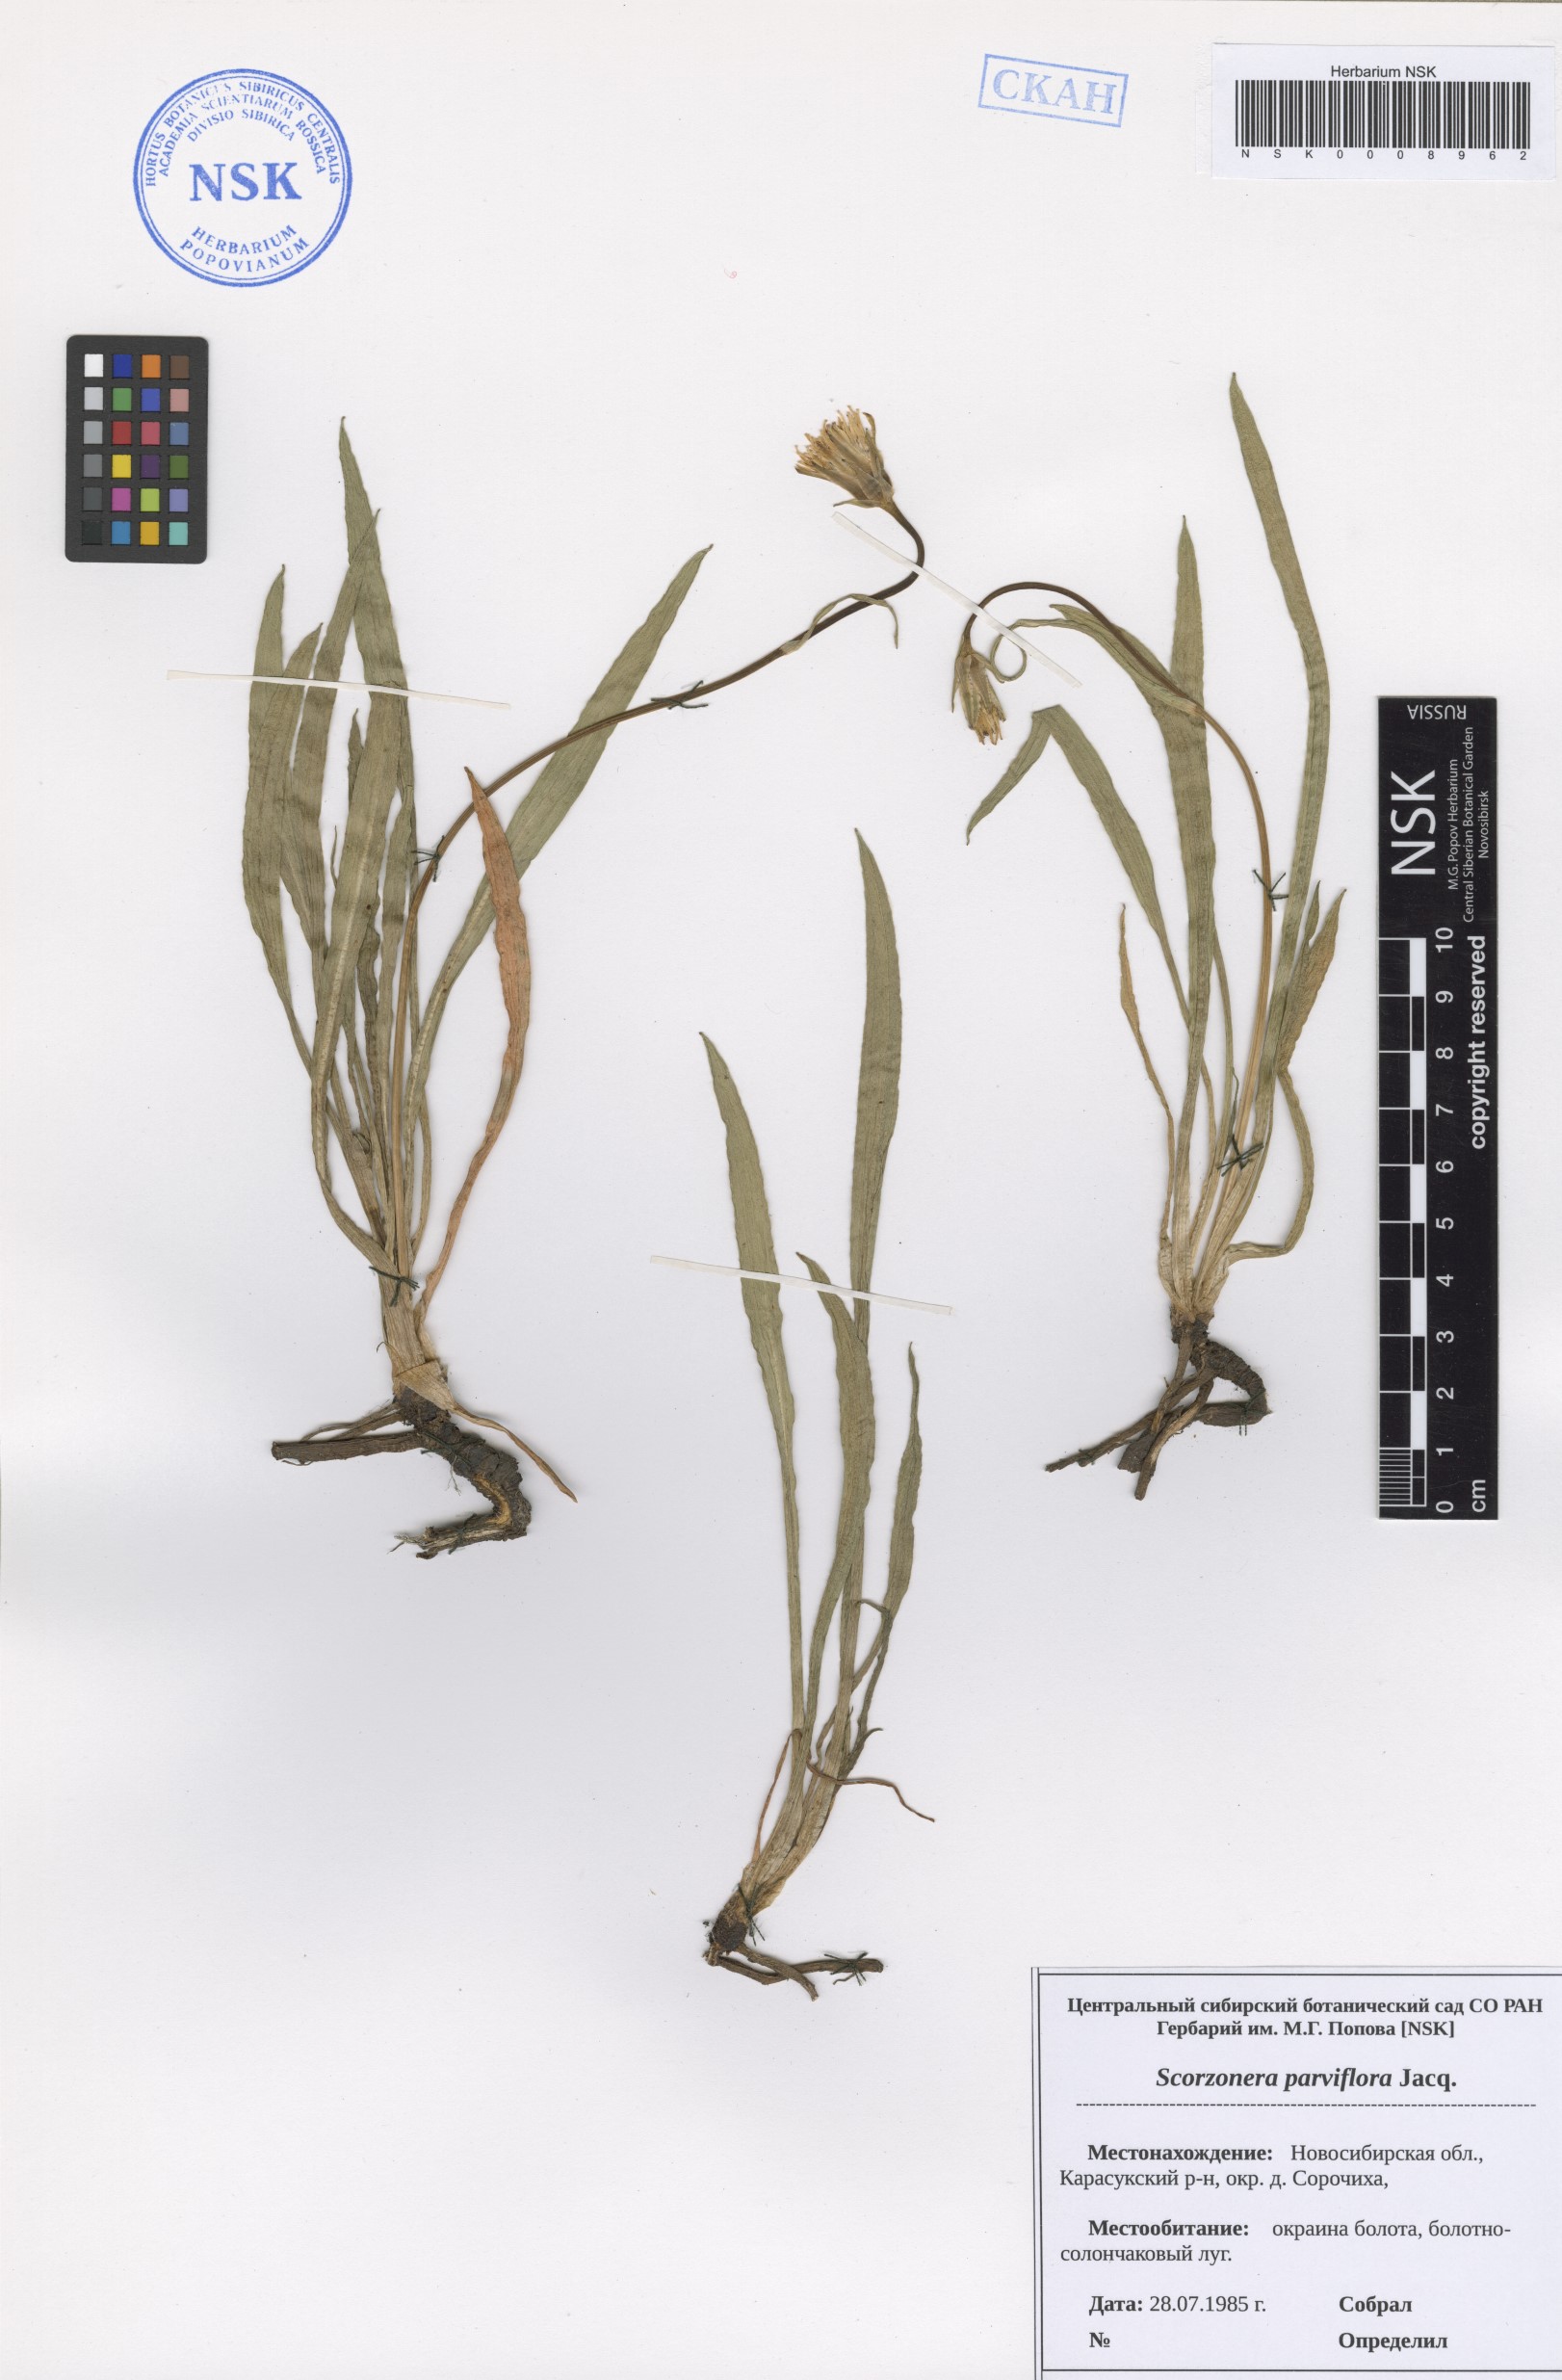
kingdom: Plantae
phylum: Tracheophyta
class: Magnoliopsida
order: Asterales
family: Asteraceae
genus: Scorzonera
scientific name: Scorzonera parviflora
